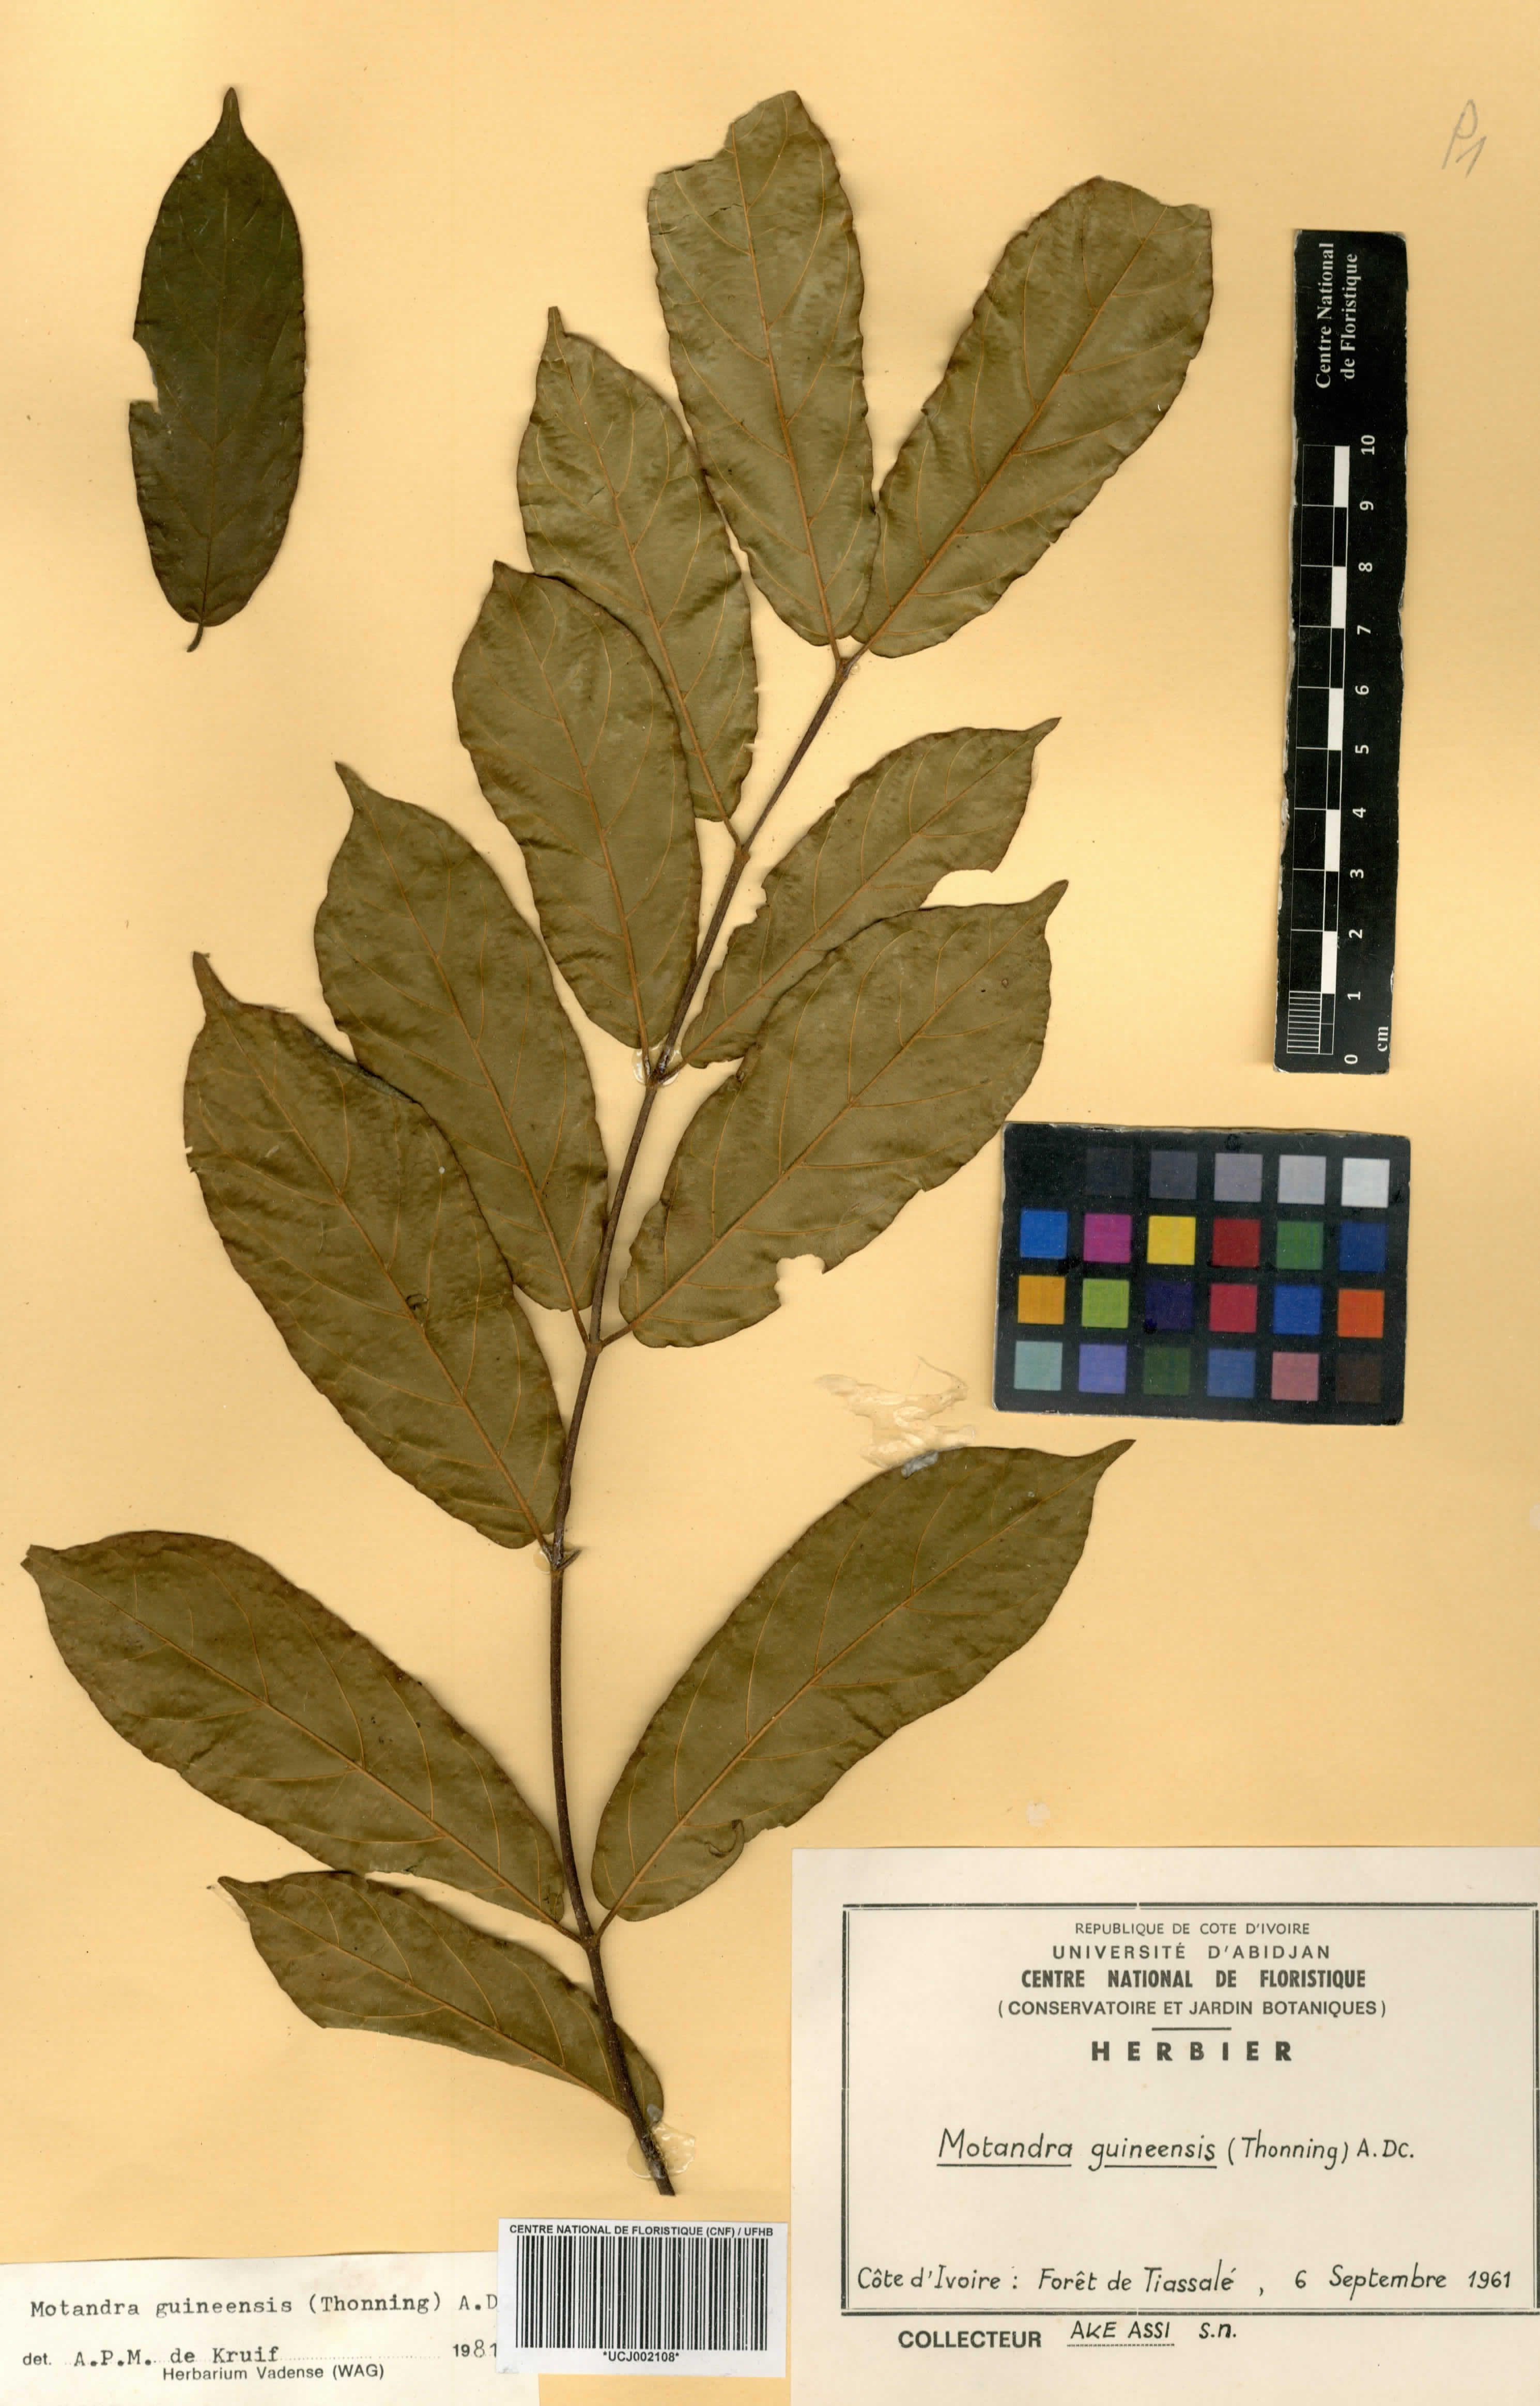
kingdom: Plantae
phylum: Tracheophyta
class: Magnoliopsida
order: Gentianales
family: Apocynaceae
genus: Motandra
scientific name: Motandra paniculata
